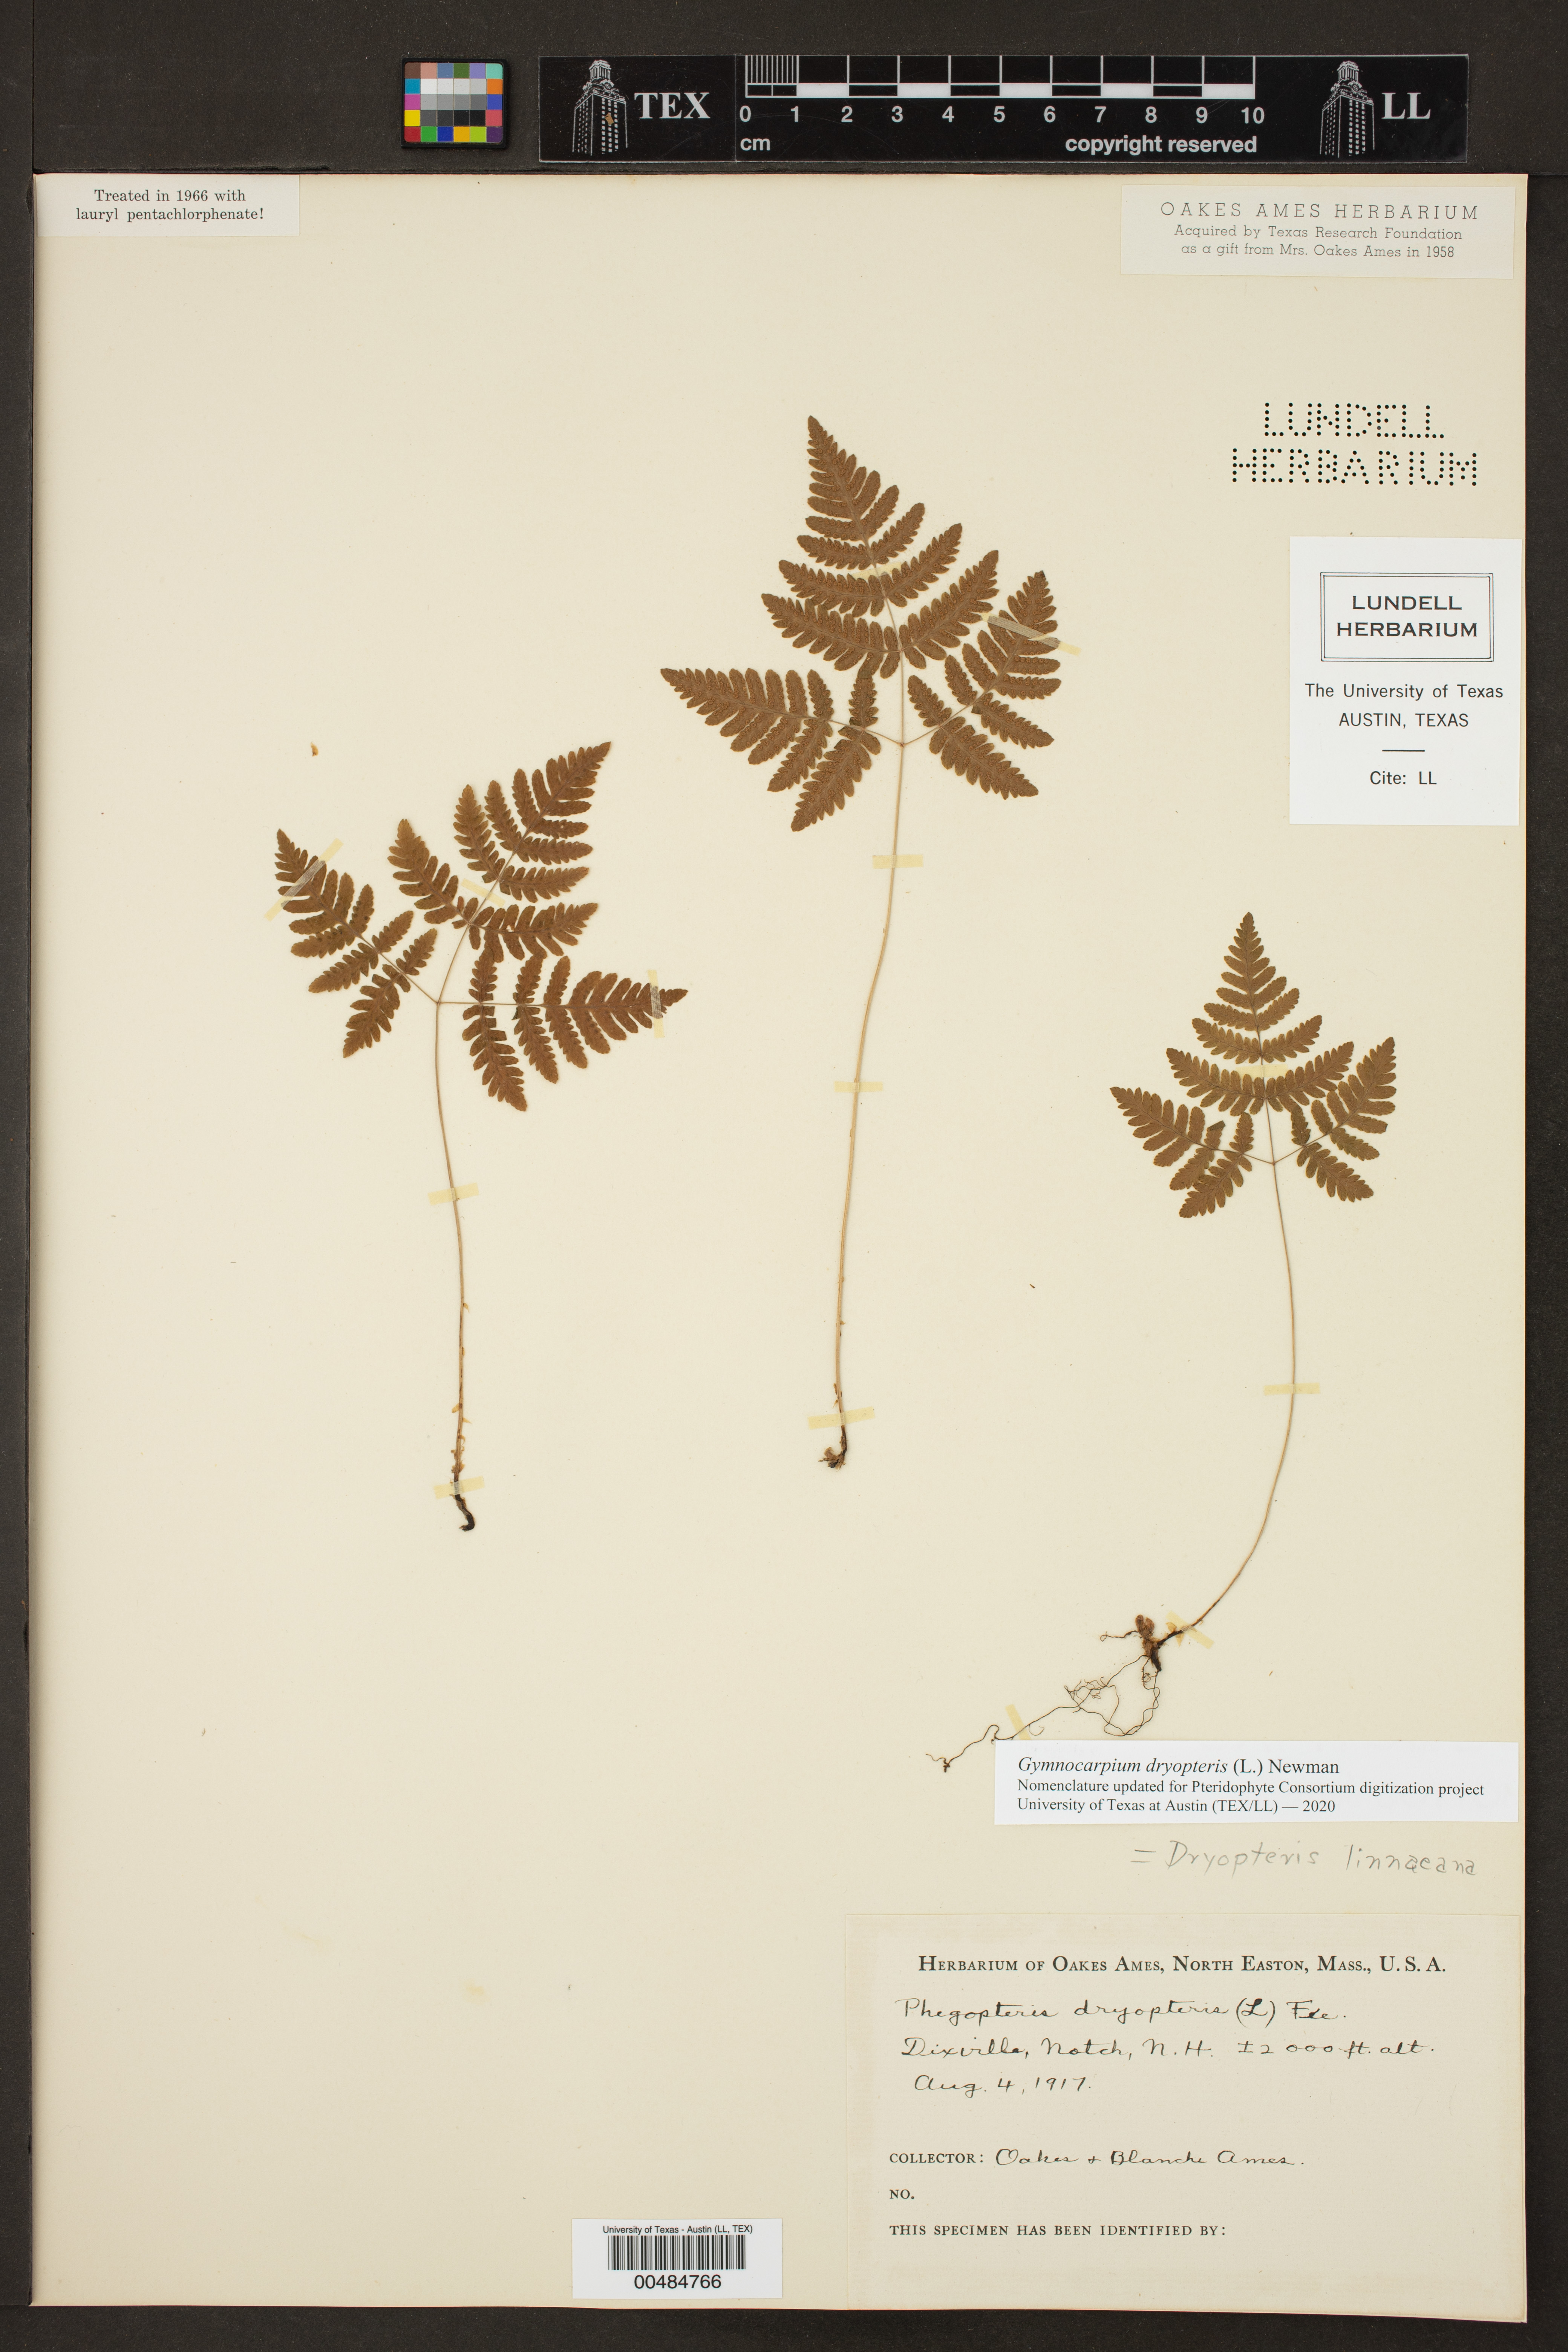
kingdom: Plantae
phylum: Tracheophyta
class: Polypodiopsida
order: Polypodiales
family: Cystopteridaceae
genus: Gymnocarpium
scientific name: Gymnocarpium dryopteris
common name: Oak fern
